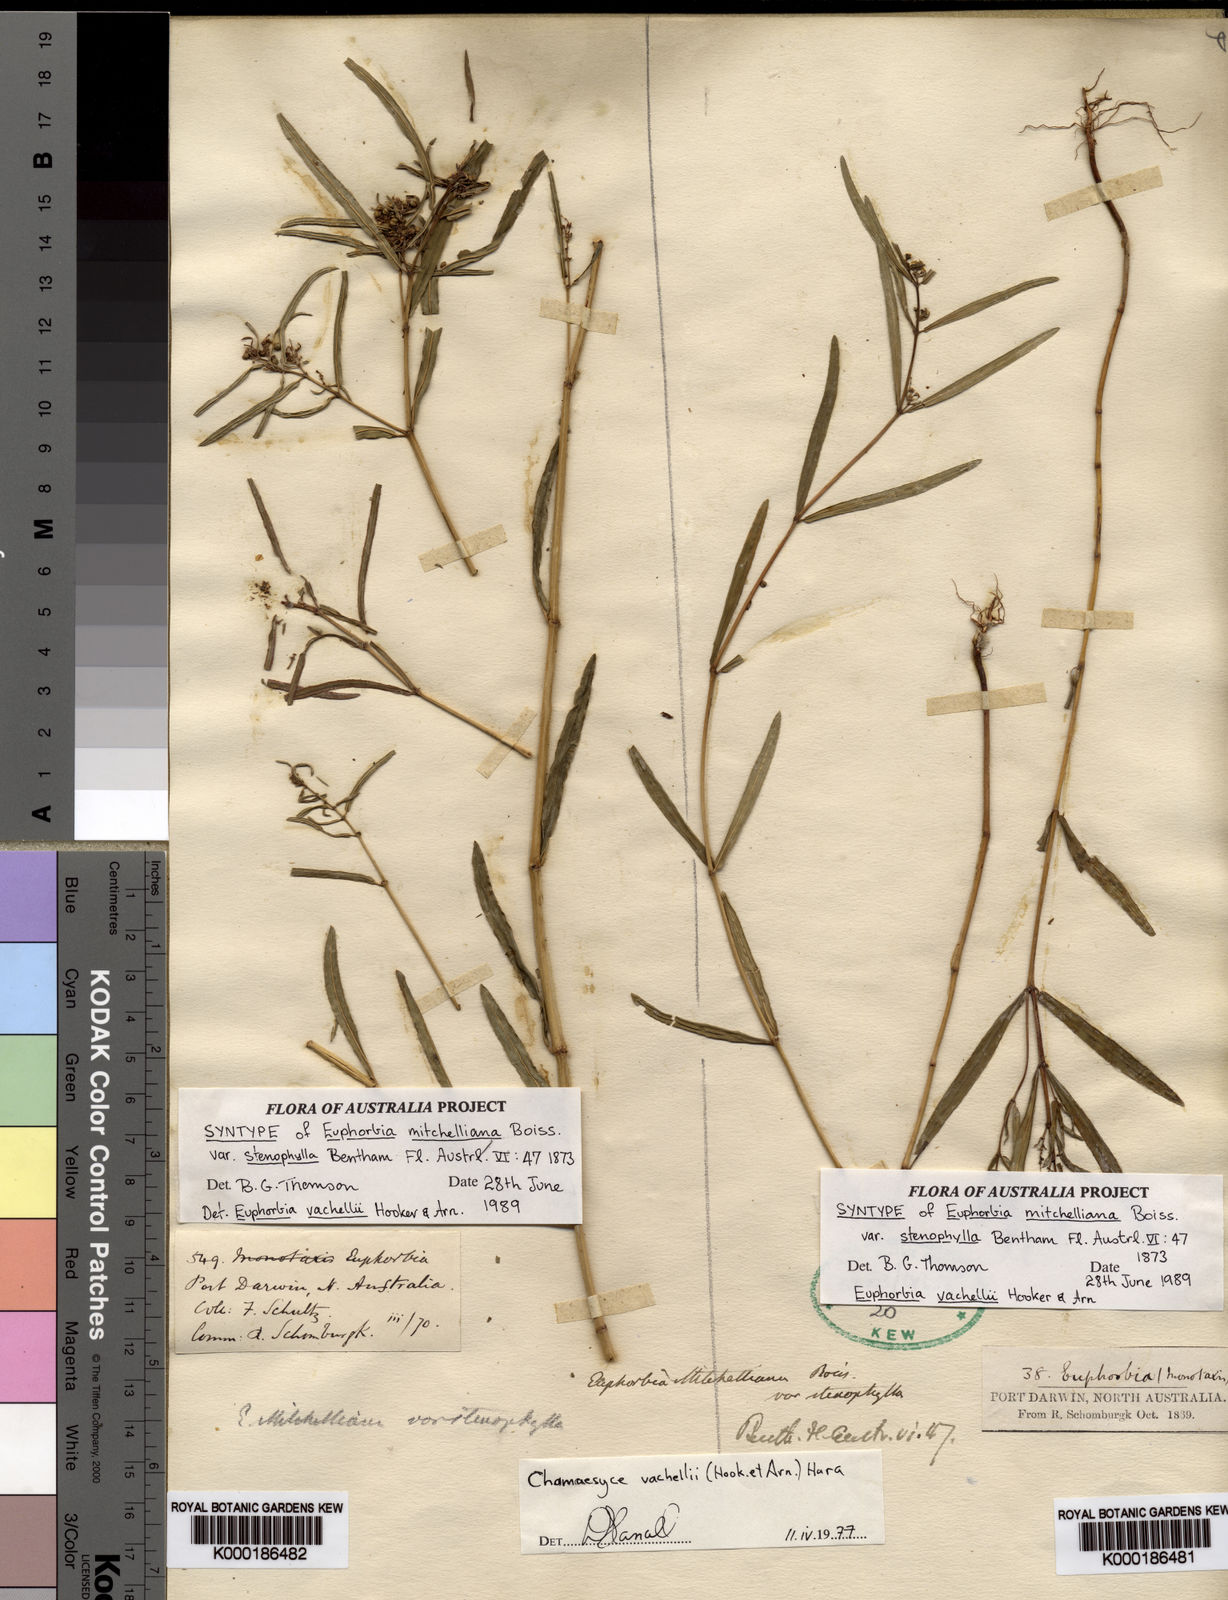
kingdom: Plantae
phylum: Tracheophyta
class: Magnoliopsida
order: Malpighiales
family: Euphorbiaceae
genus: Euphorbia
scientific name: Euphorbia bifida
